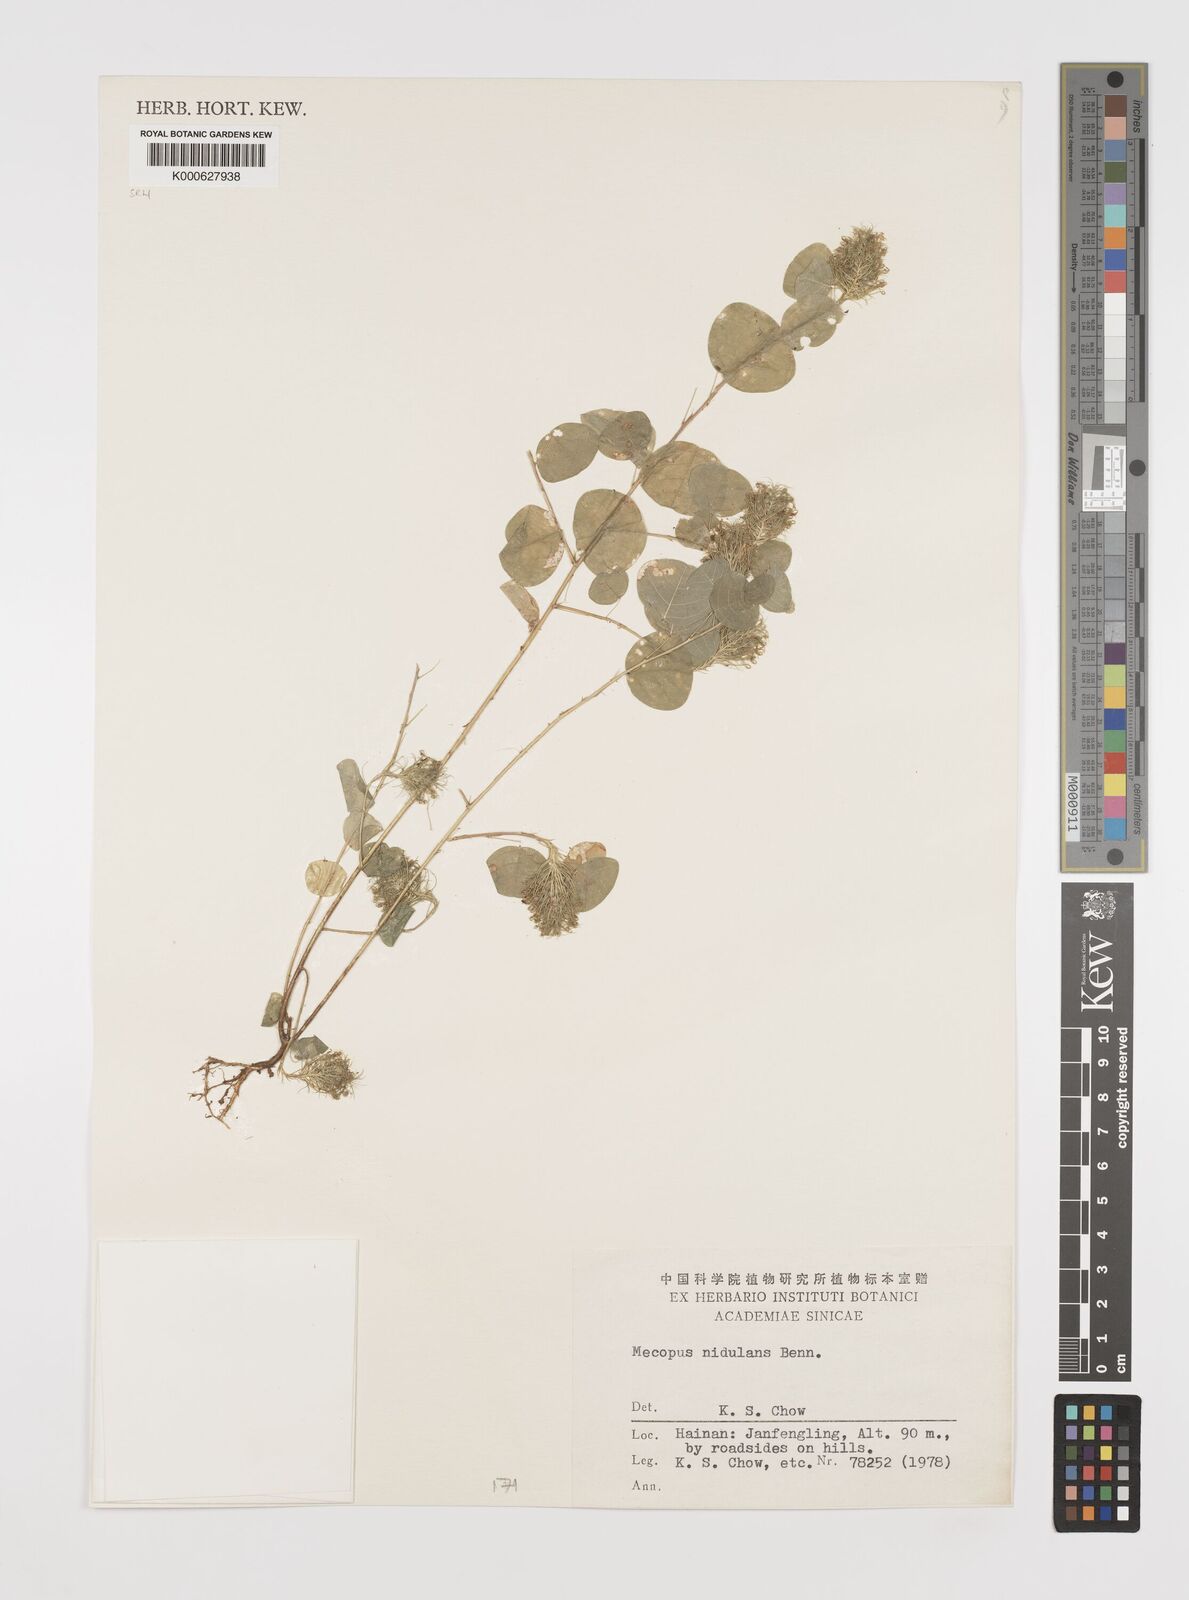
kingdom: Plantae
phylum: Tracheophyta
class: Magnoliopsida
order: Fabales
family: Fabaceae
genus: Mecopus
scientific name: Mecopus nidulans
